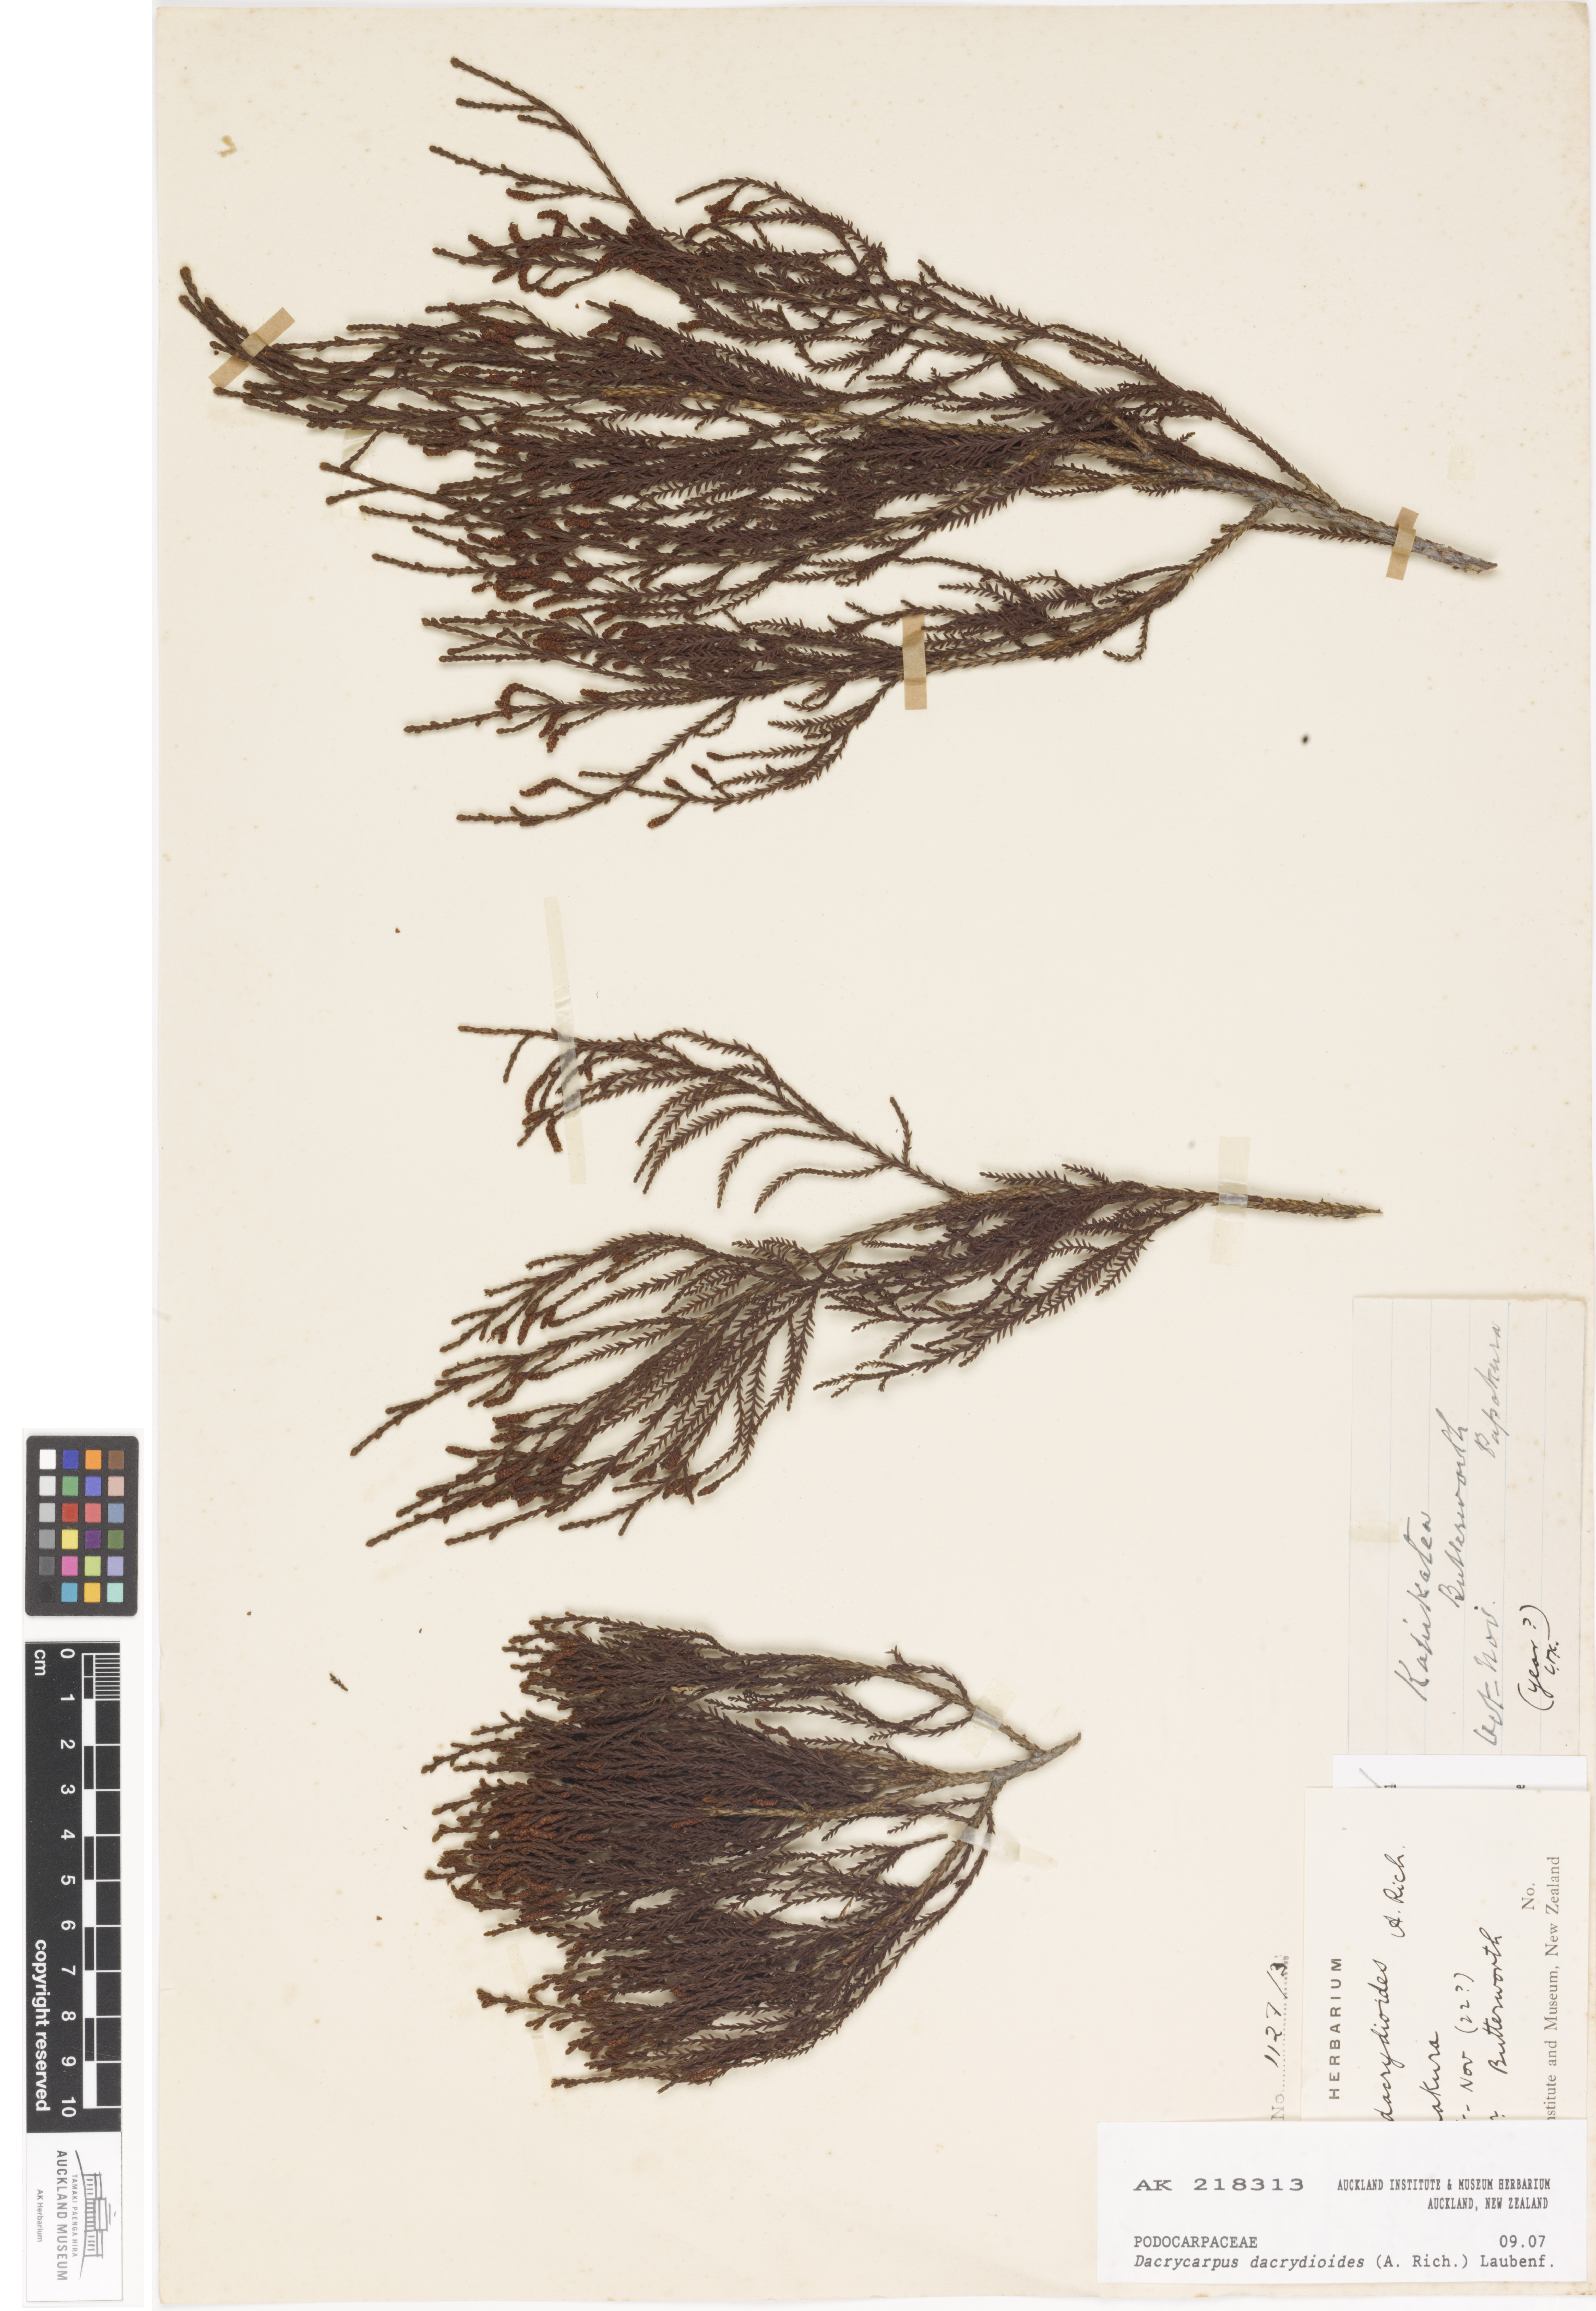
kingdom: Plantae
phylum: Tracheophyta
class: Pinopsida
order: Pinales
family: Podocarpaceae
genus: Dacrycarpus
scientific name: Dacrycarpus dacrydioides
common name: White pine
